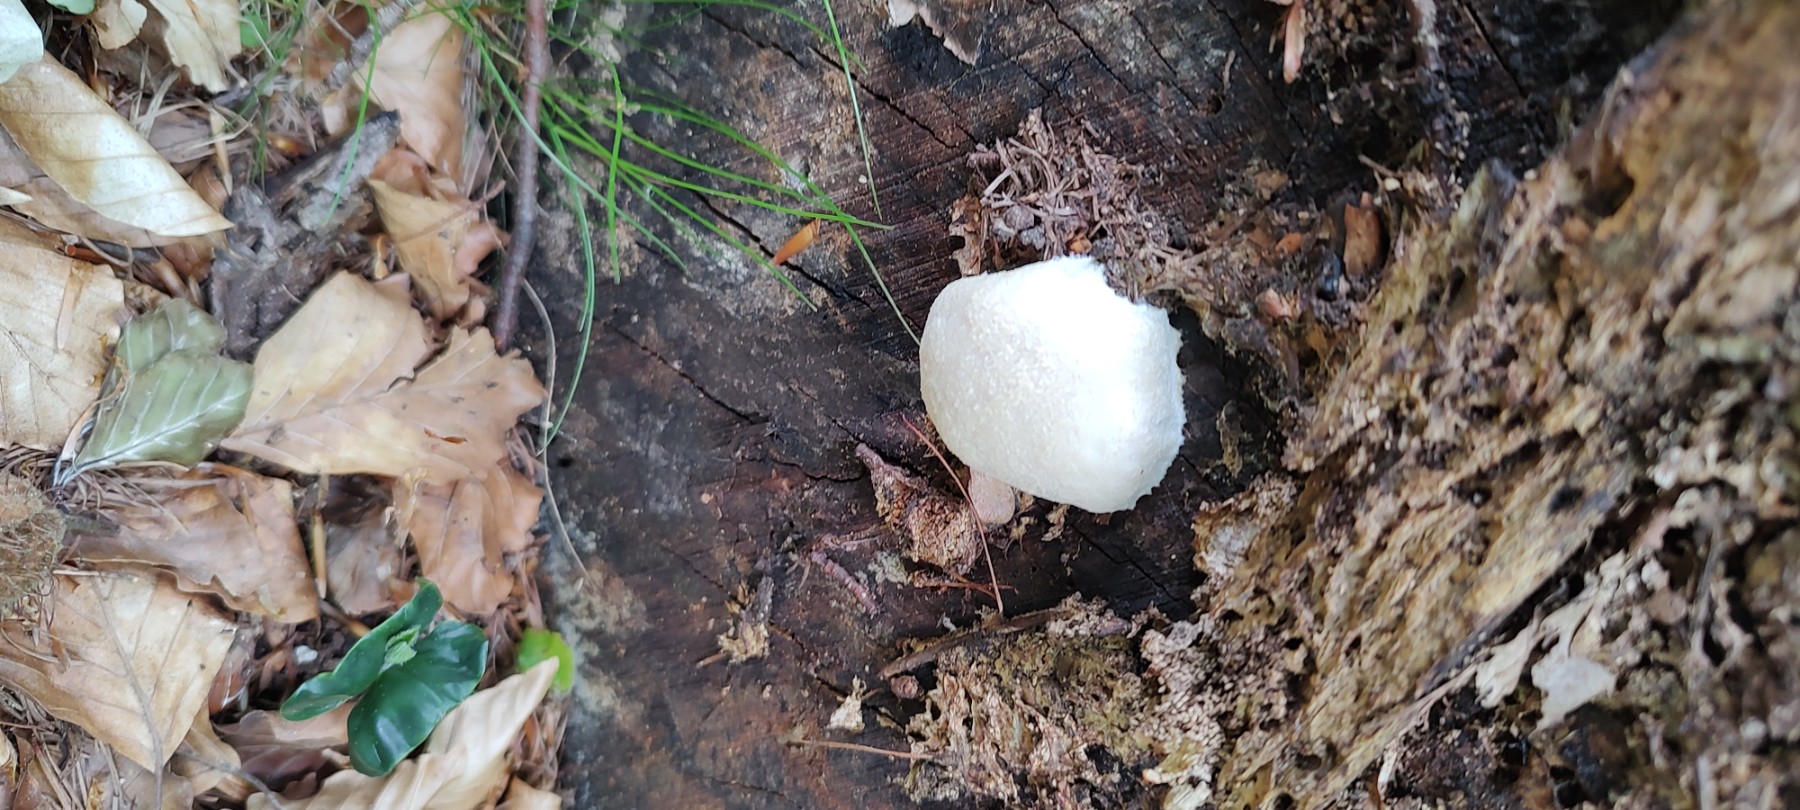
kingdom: Protozoa
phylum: Mycetozoa
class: Myxomycetes
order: Cribrariales
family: Tubiferaceae
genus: Reticularia
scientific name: Reticularia lycoperdon
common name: skinnende støvpude
